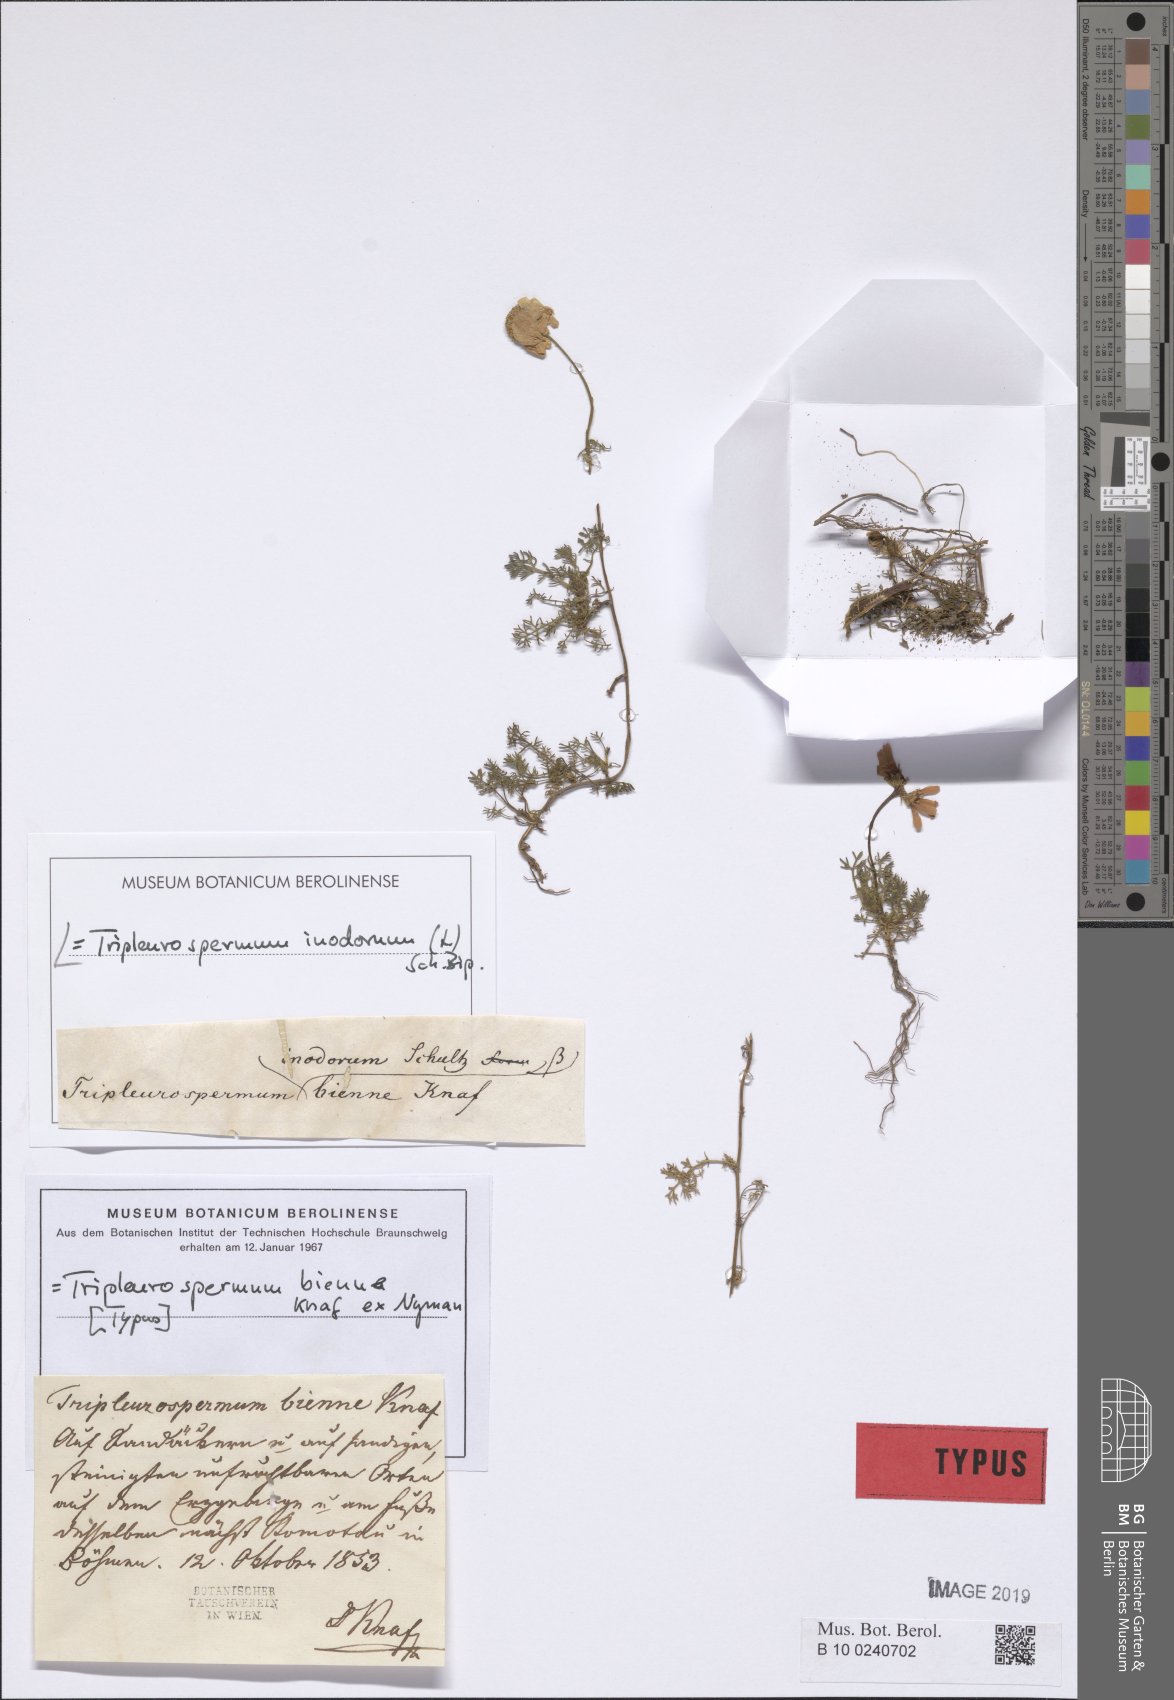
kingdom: Plantae
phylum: Tracheophyta
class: Magnoliopsida
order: Asterales
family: Asteraceae
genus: Tripleurospermum
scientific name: Tripleurospermum inodorum
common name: Scentless mayweed
